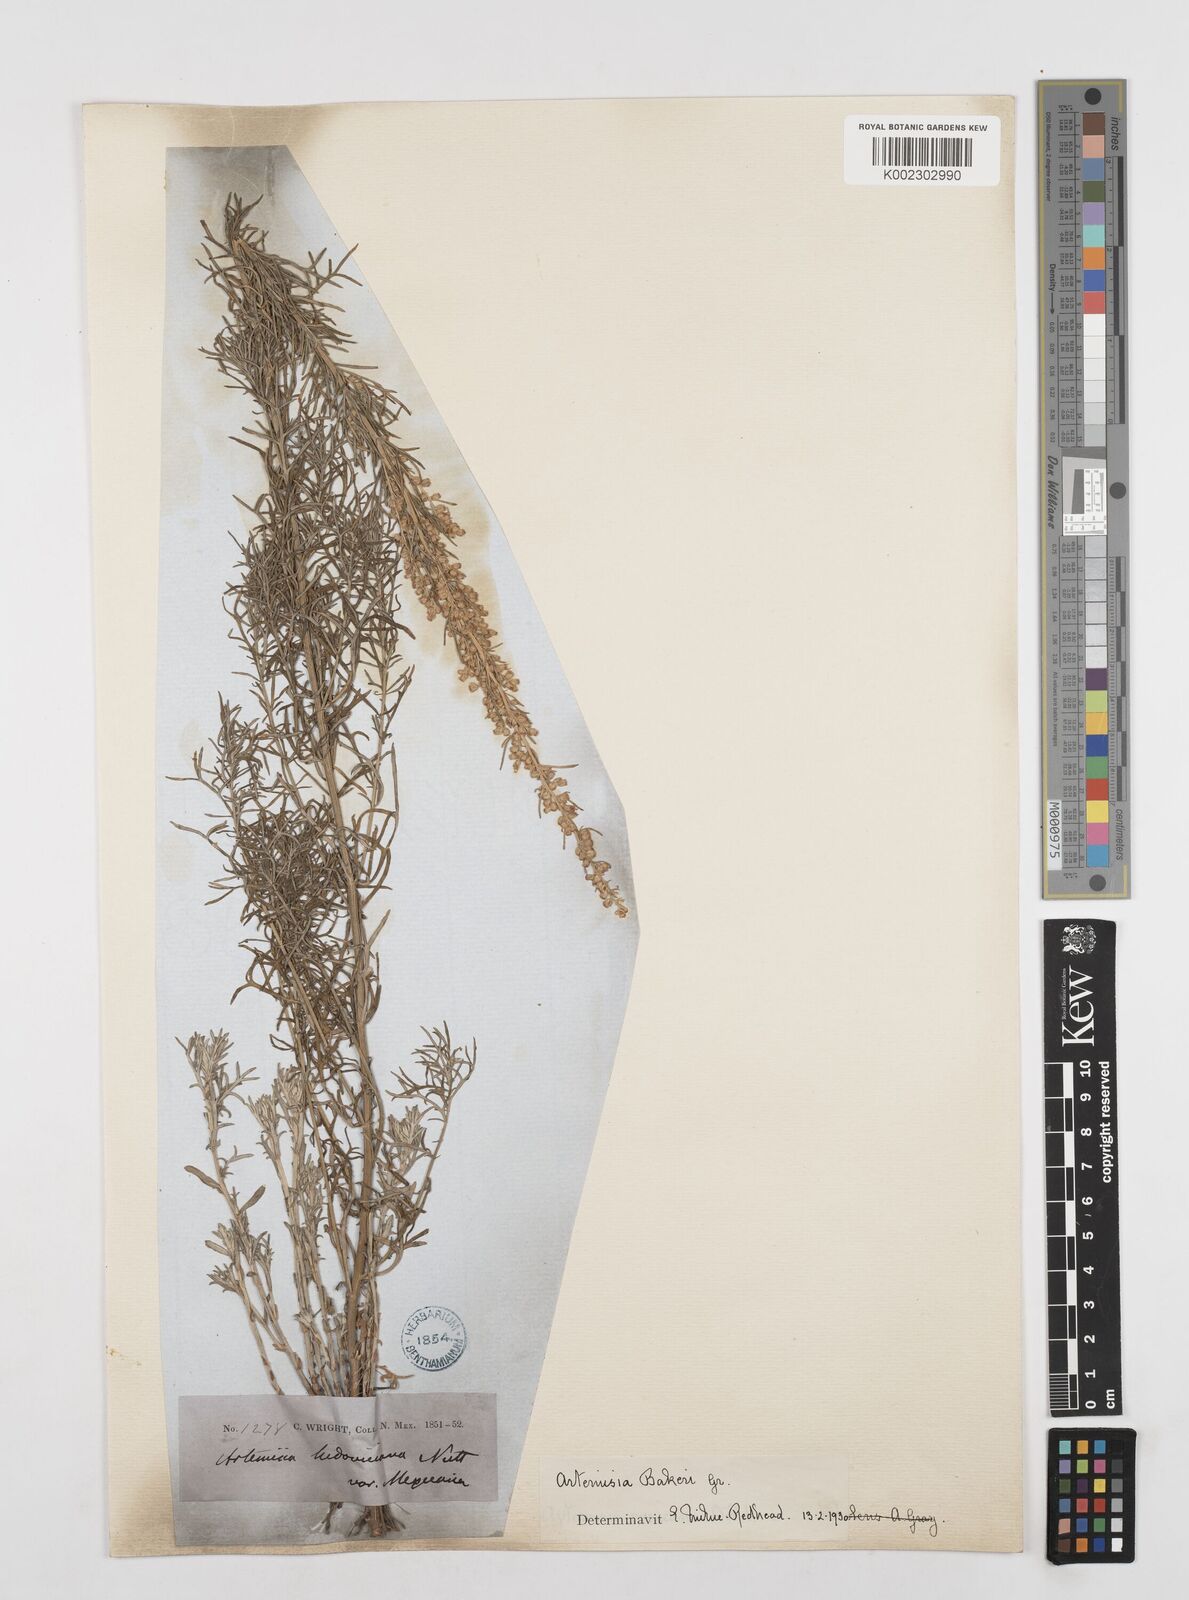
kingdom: Plantae
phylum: Tracheophyta
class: Magnoliopsida
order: Asterales
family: Asteraceae
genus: Artemisia
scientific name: Artemisia michauxiana
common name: Lemon sagewort
